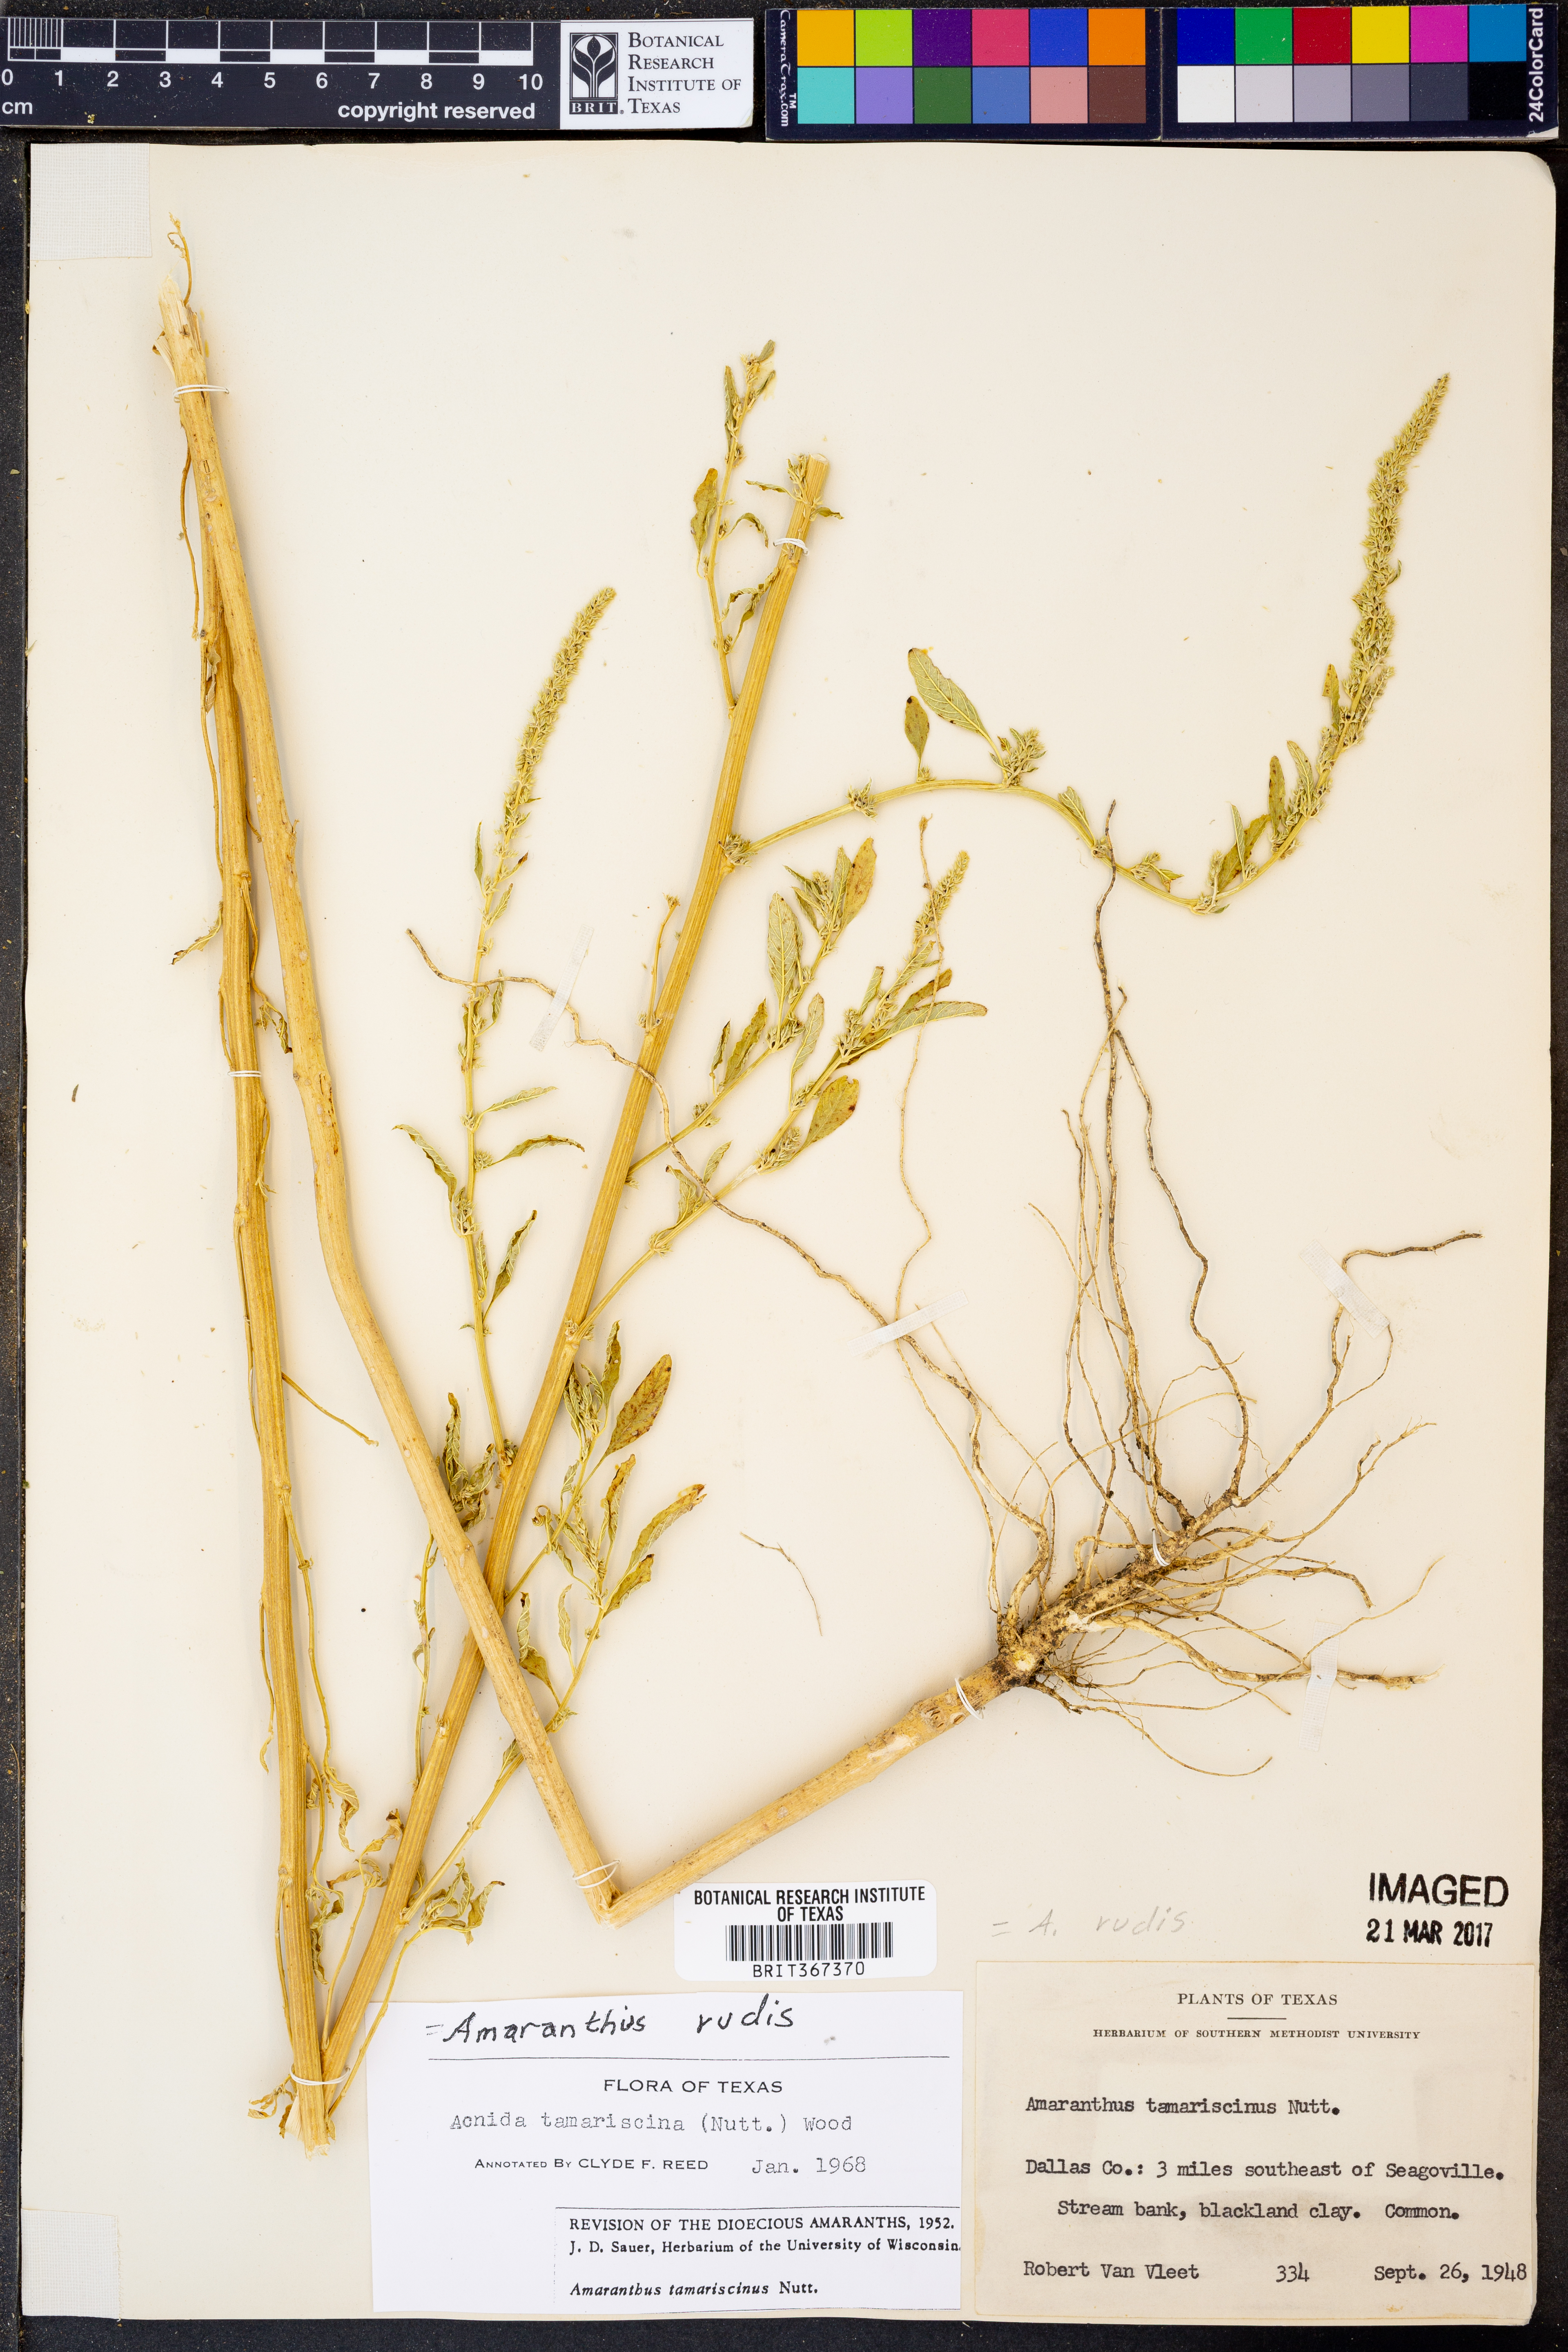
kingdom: Plantae
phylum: Tracheophyta
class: Magnoliopsida
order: Caryophyllales
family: Amaranthaceae
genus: Amaranthus
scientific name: Amaranthus tuberculatus
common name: Rough-fruit amaranth
